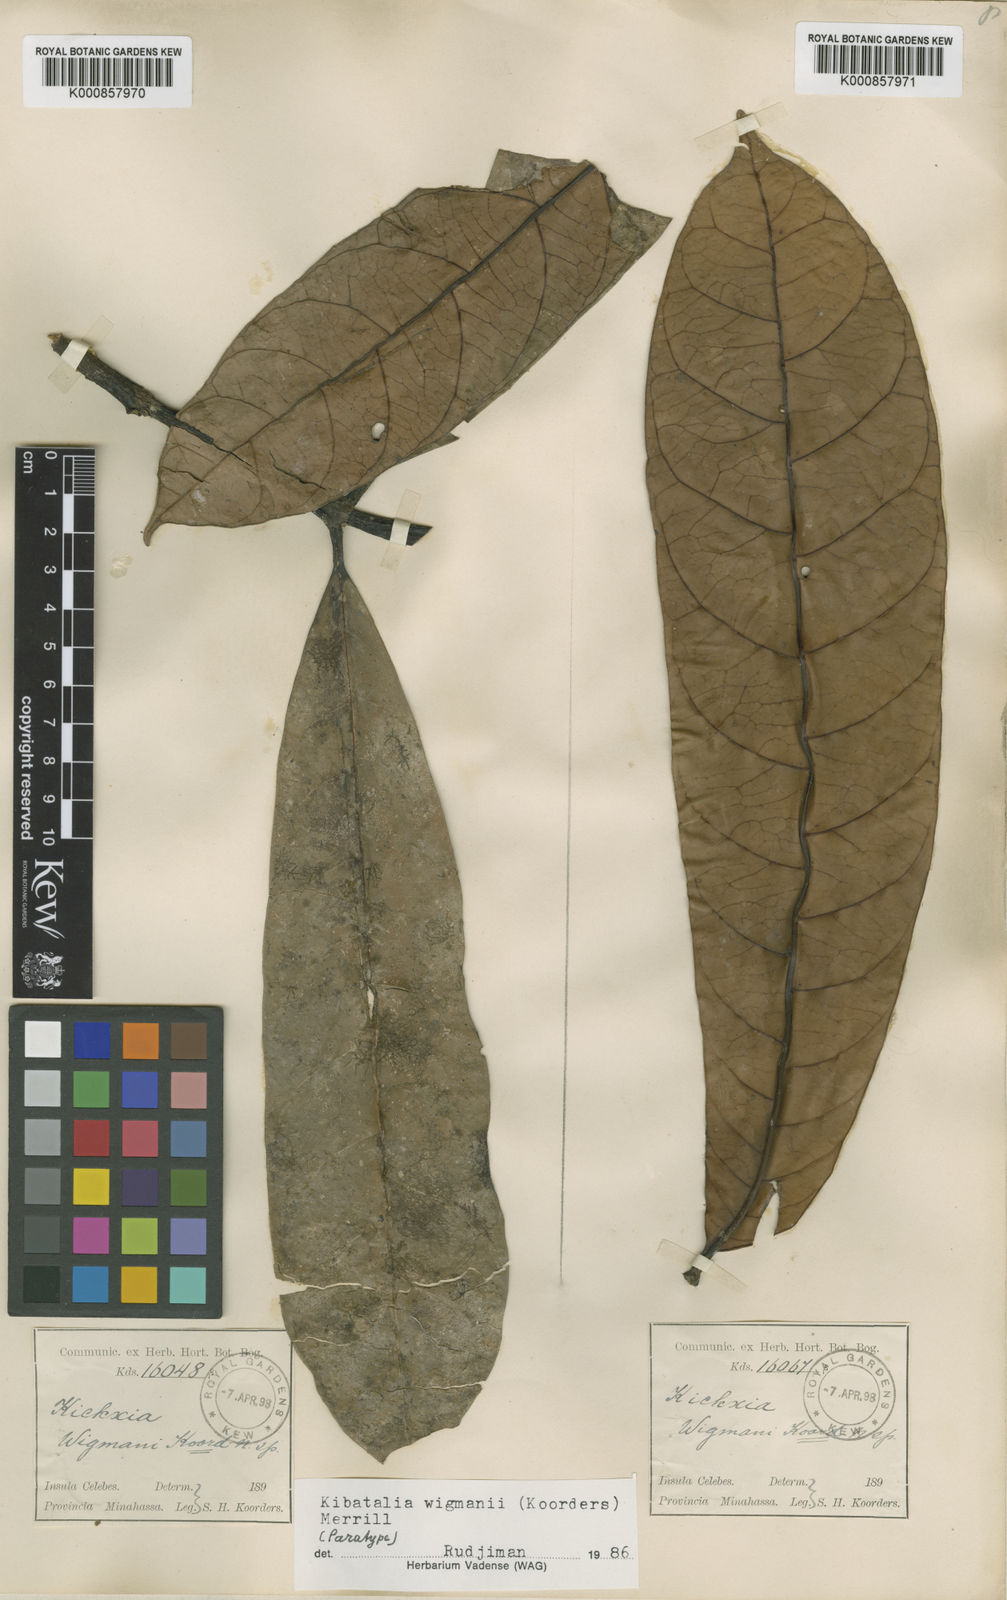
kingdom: Plantae
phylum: Tracheophyta
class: Magnoliopsida
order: Gentianales
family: Apocynaceae
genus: Kibatalia
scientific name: Kibatalia wigmanii
